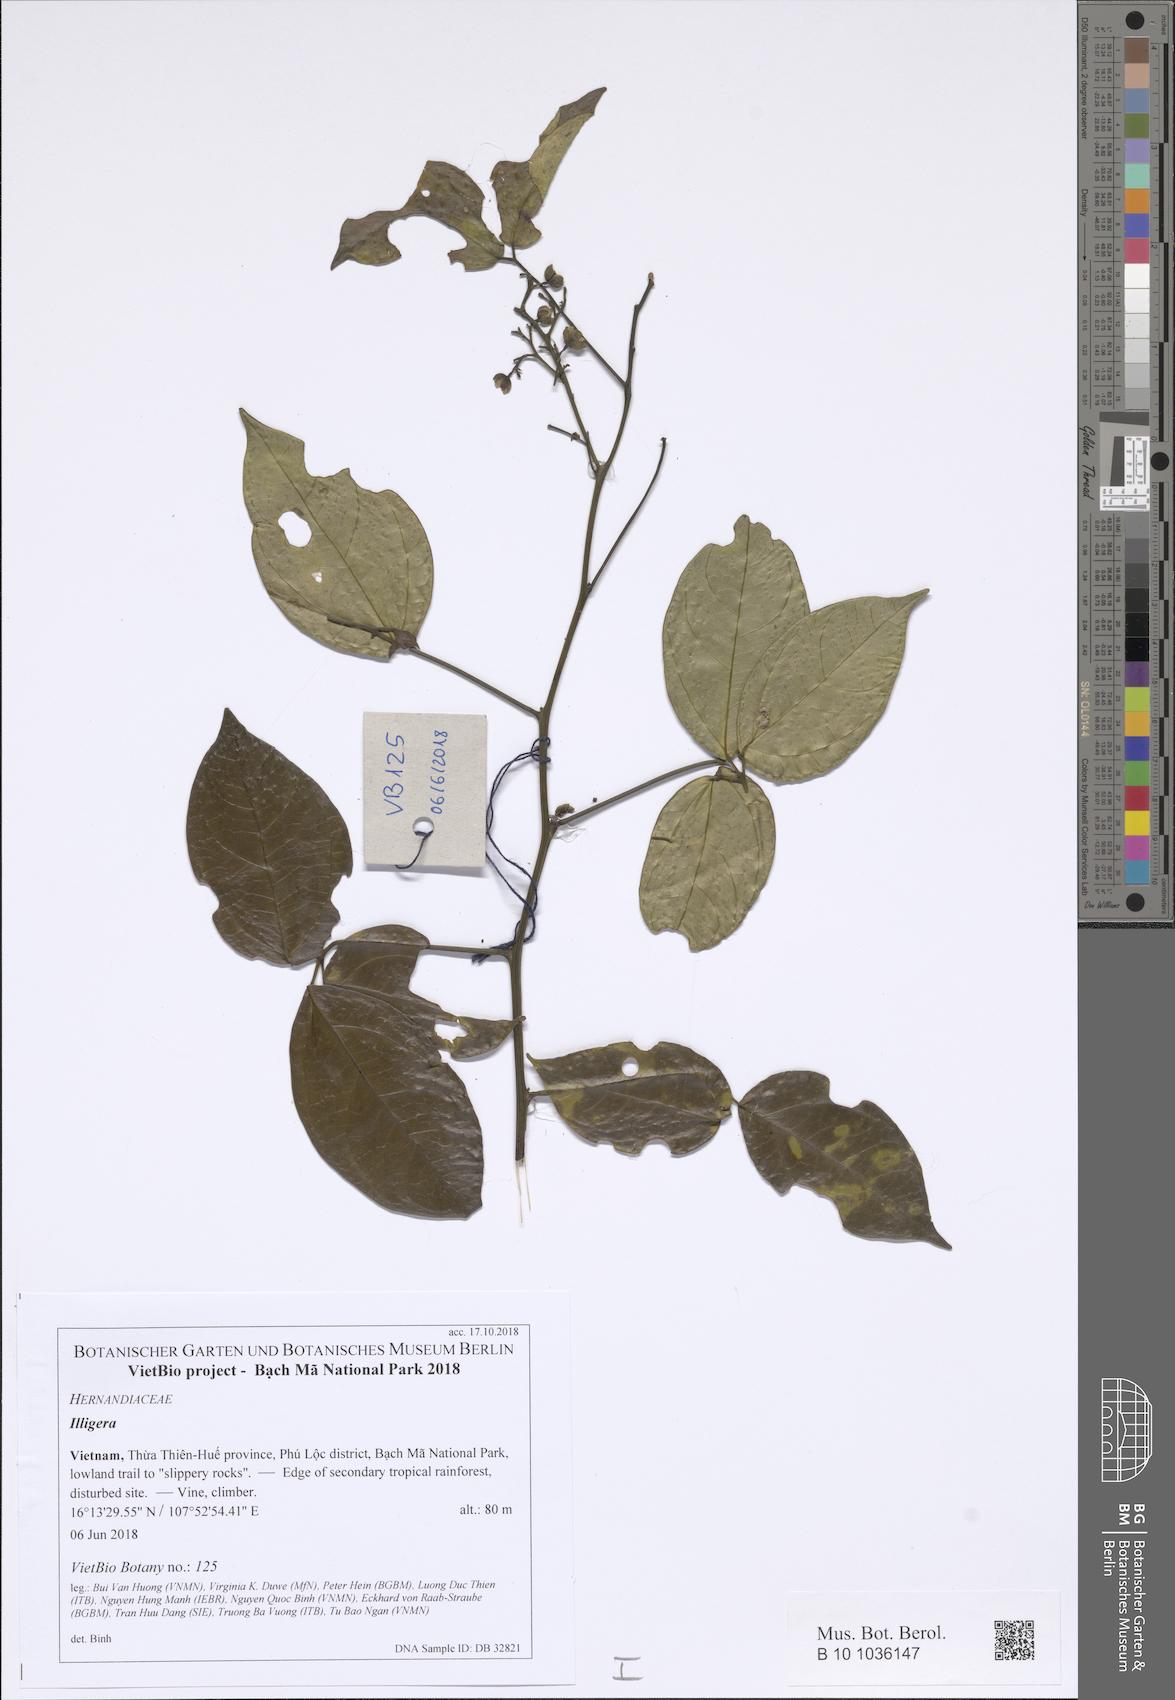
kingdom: Plantae
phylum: Tracheophyta
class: Magnoliopsida
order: Laurales
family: Hernandiaceae
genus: Illigera
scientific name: Illigera celebica
